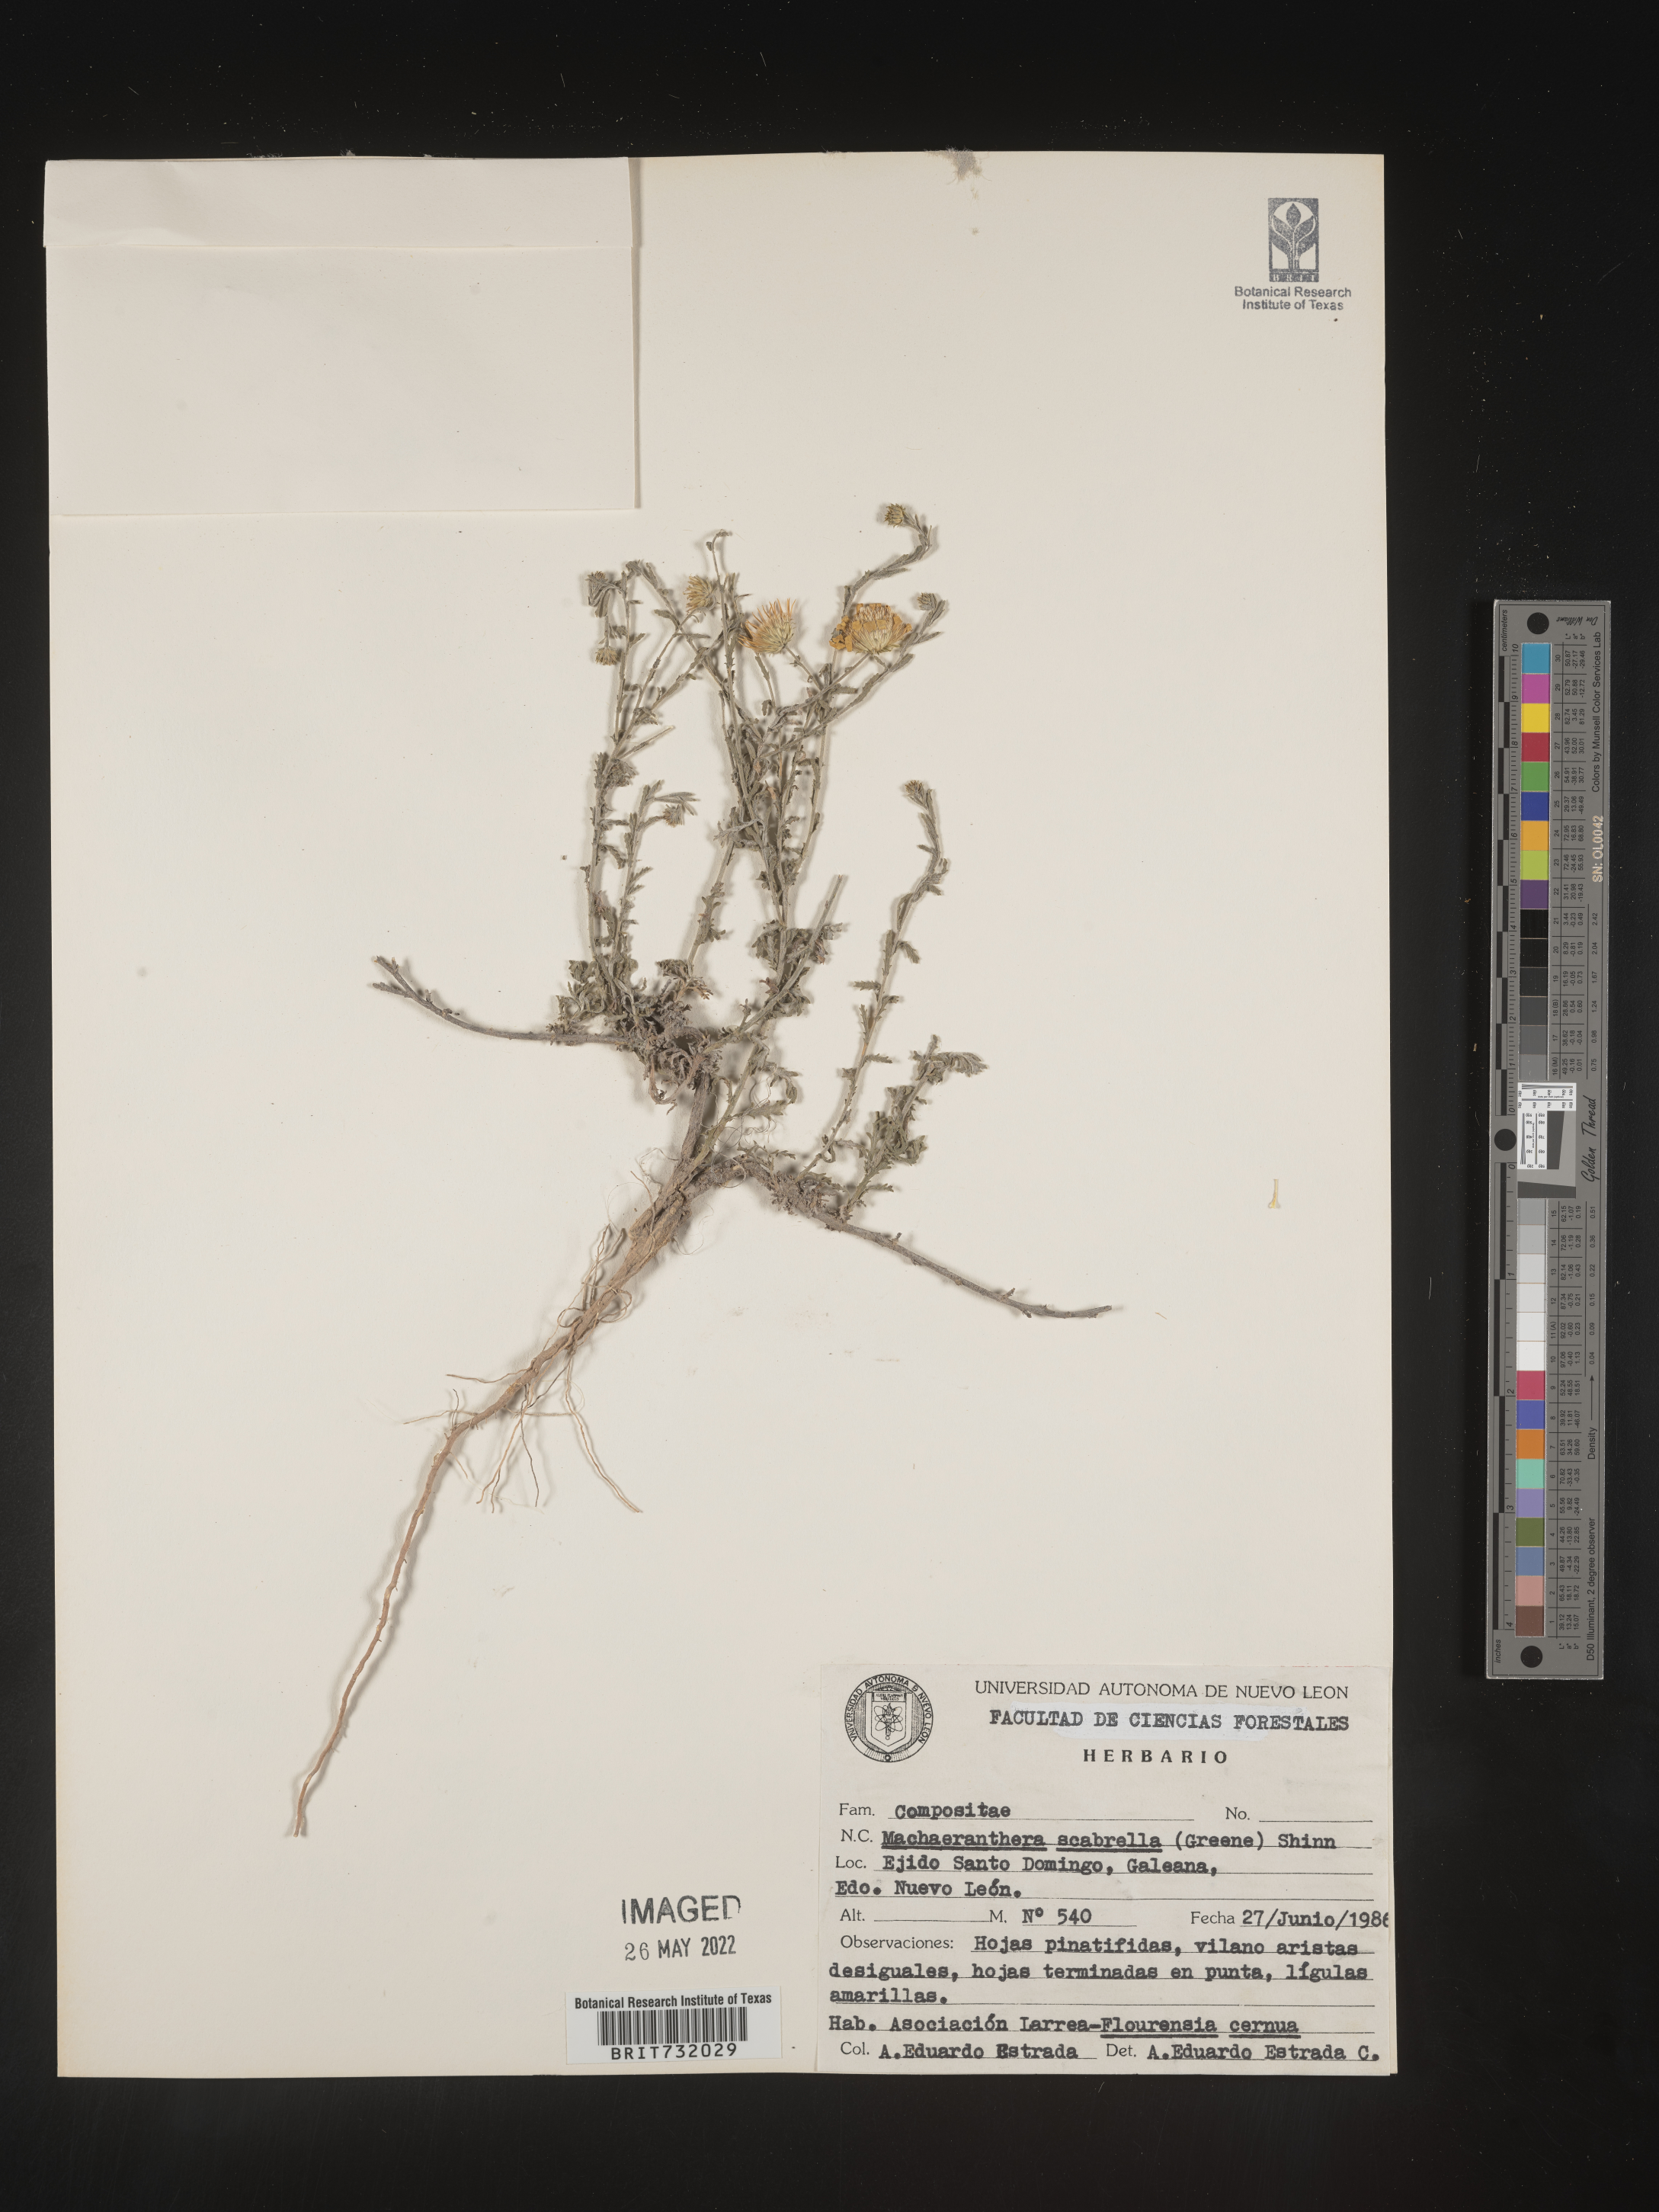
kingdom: Plantae
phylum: Tracheophyta
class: Magnoliopsida
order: Asterales
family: Asteraceae
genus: Xanthisma
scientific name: Xanthisma scabrellum
